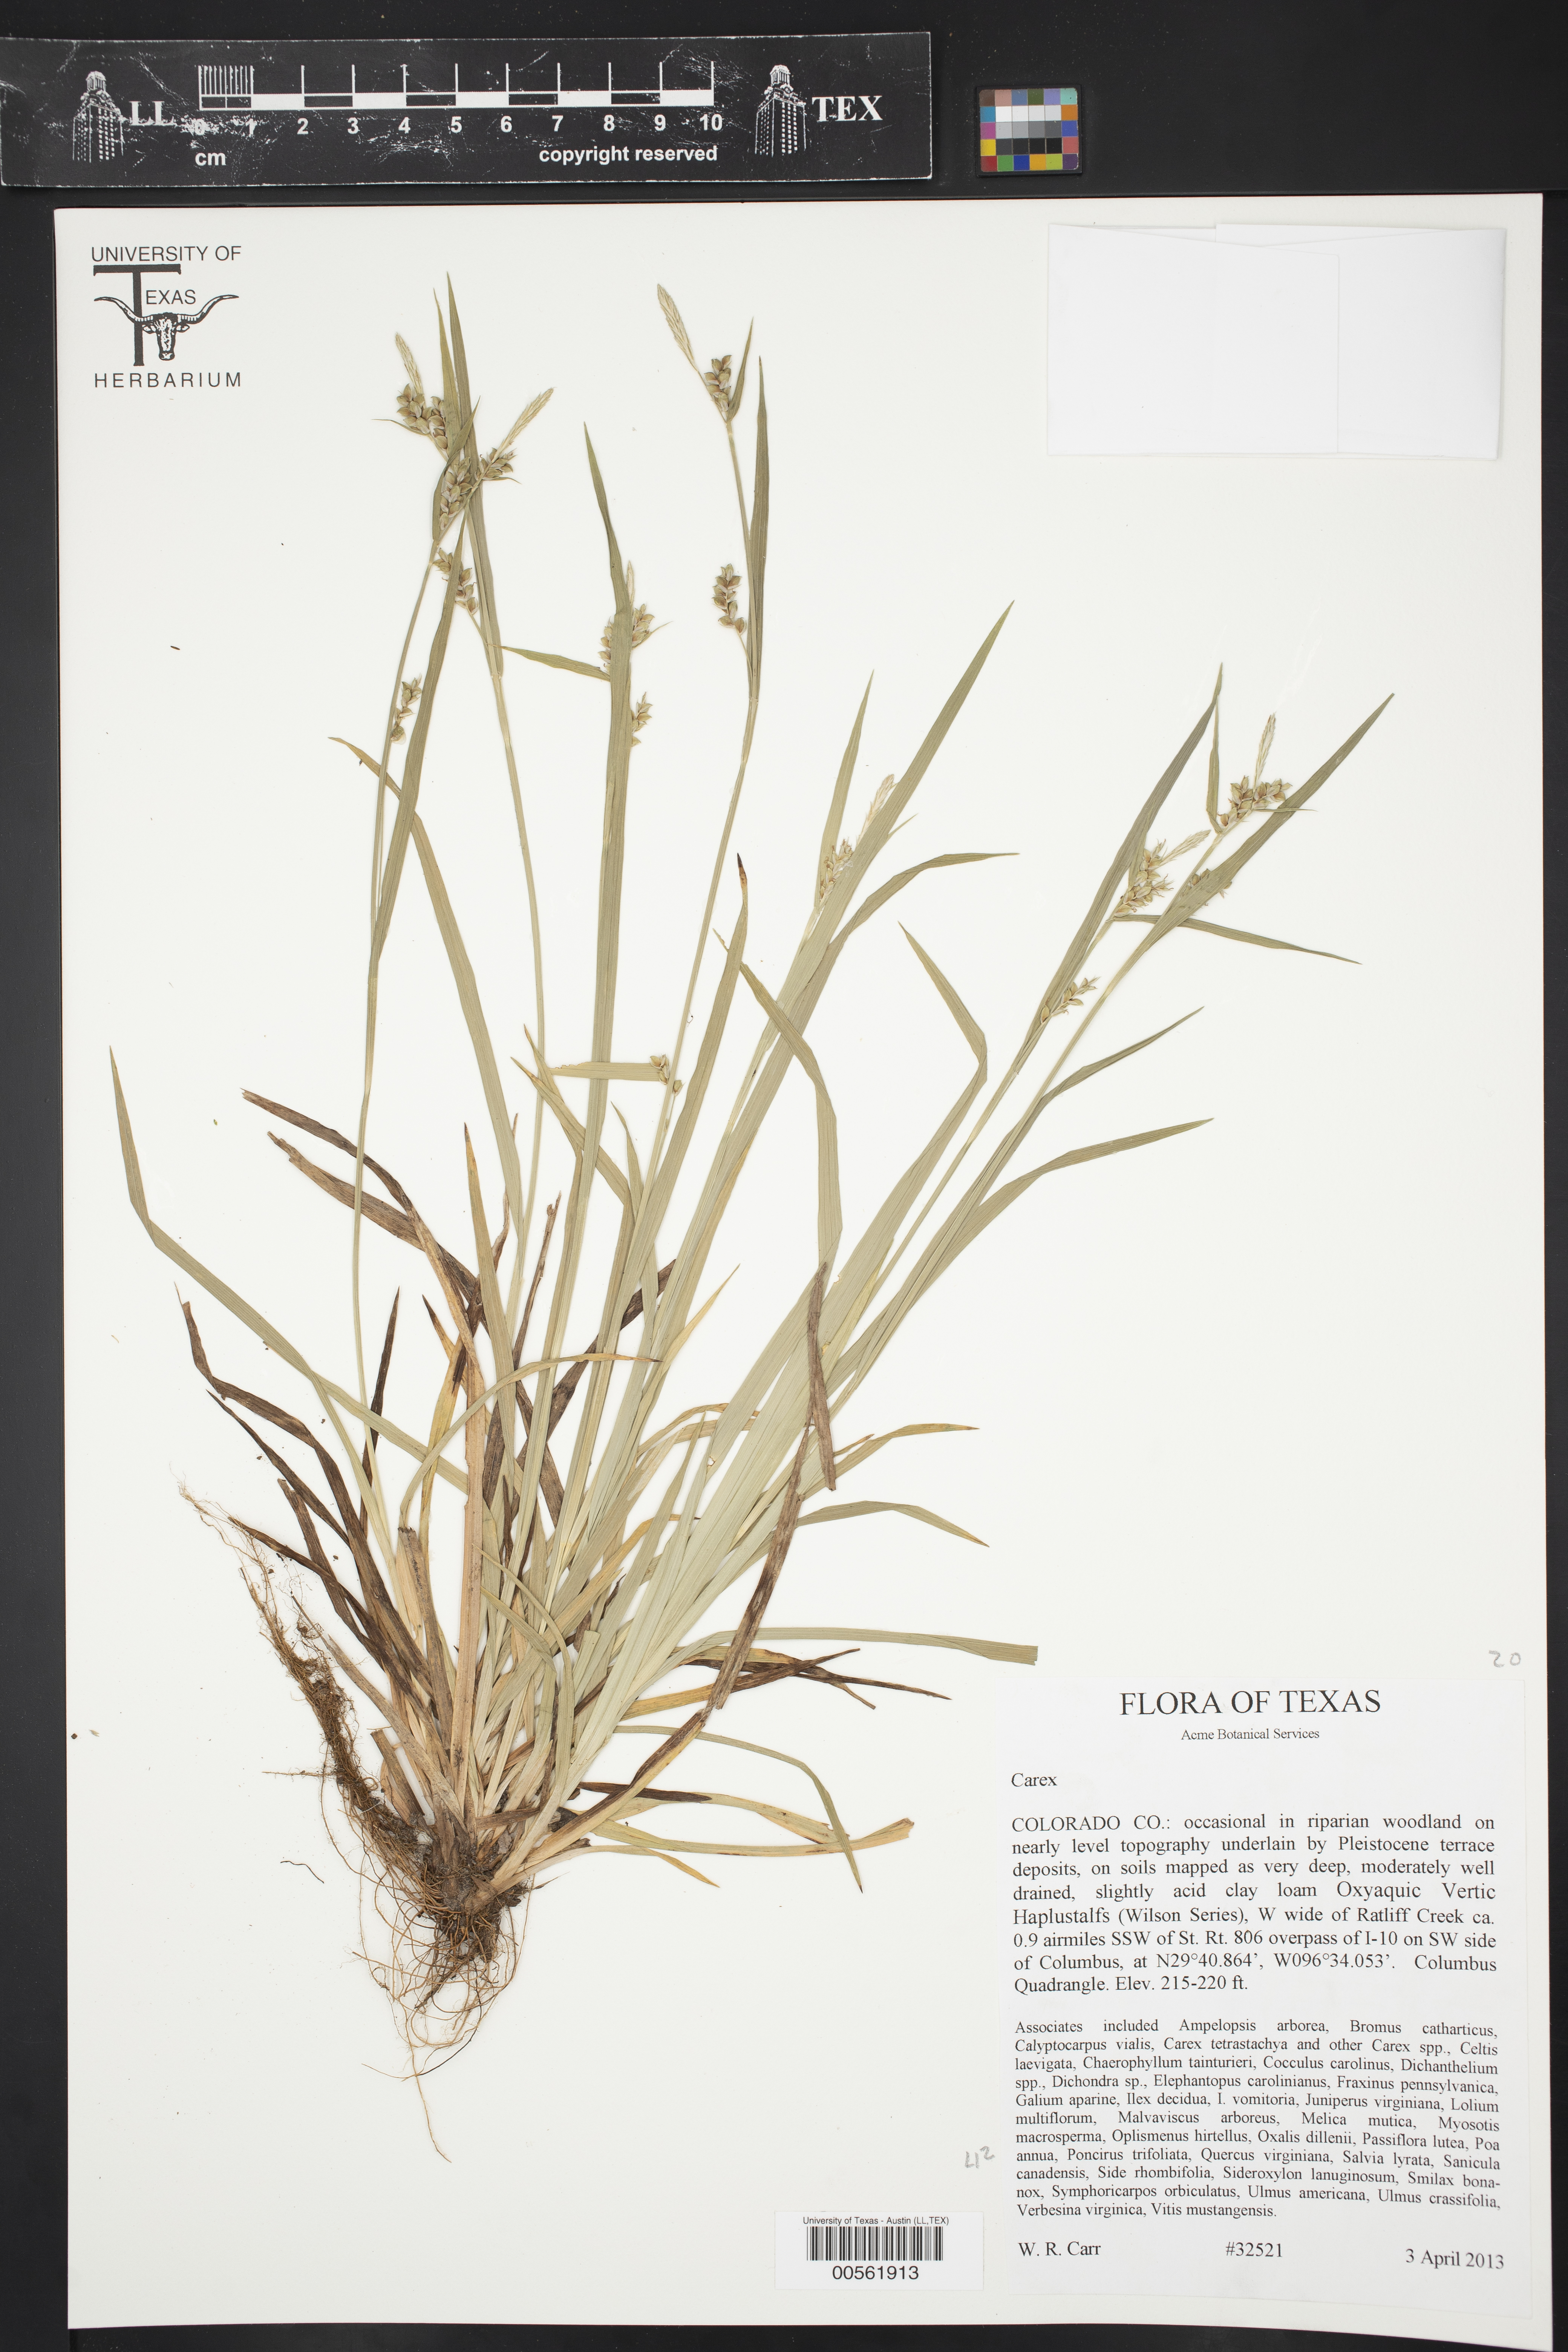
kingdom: Plantae
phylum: Tracheophyta
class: Liliopsida
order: Poales
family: Cyperaceae
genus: Carex
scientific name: Carex
